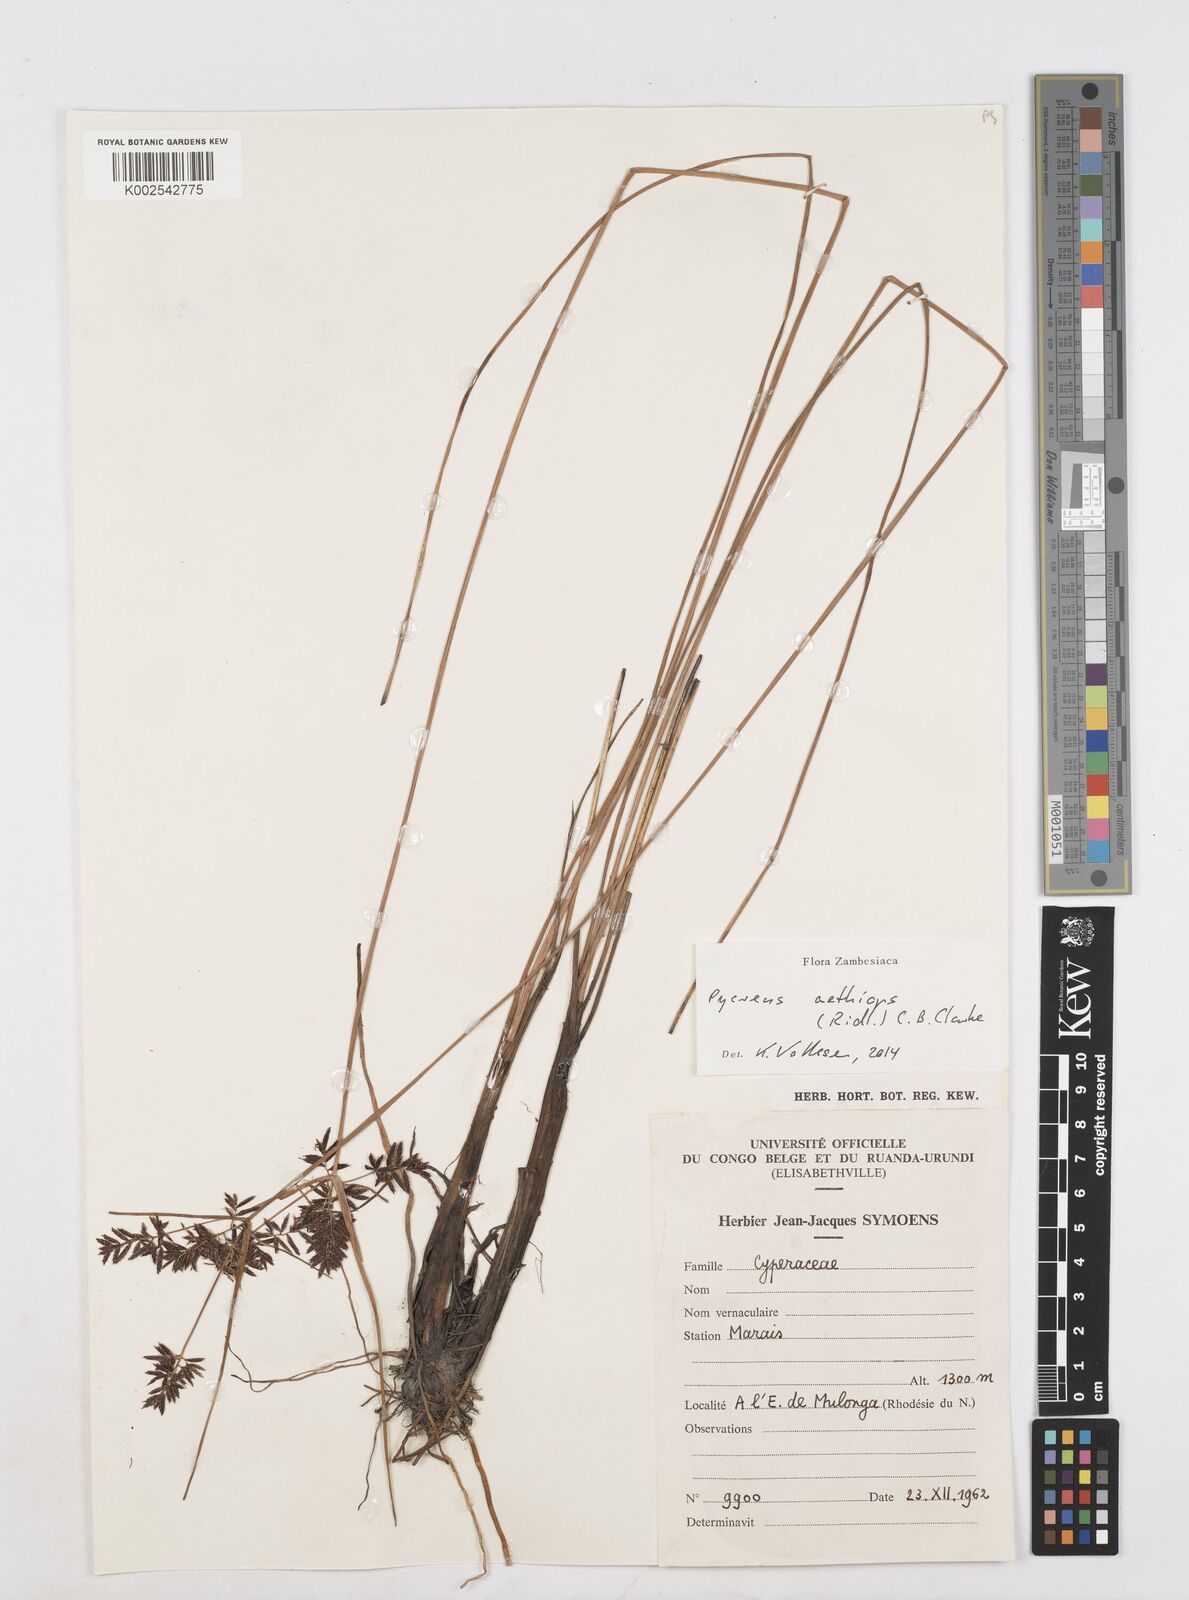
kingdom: Plantae
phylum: Tracheophyta
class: Liliopsida
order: Poales
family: Cyperaceae
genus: Cyperus
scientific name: Cyperus aethiops
